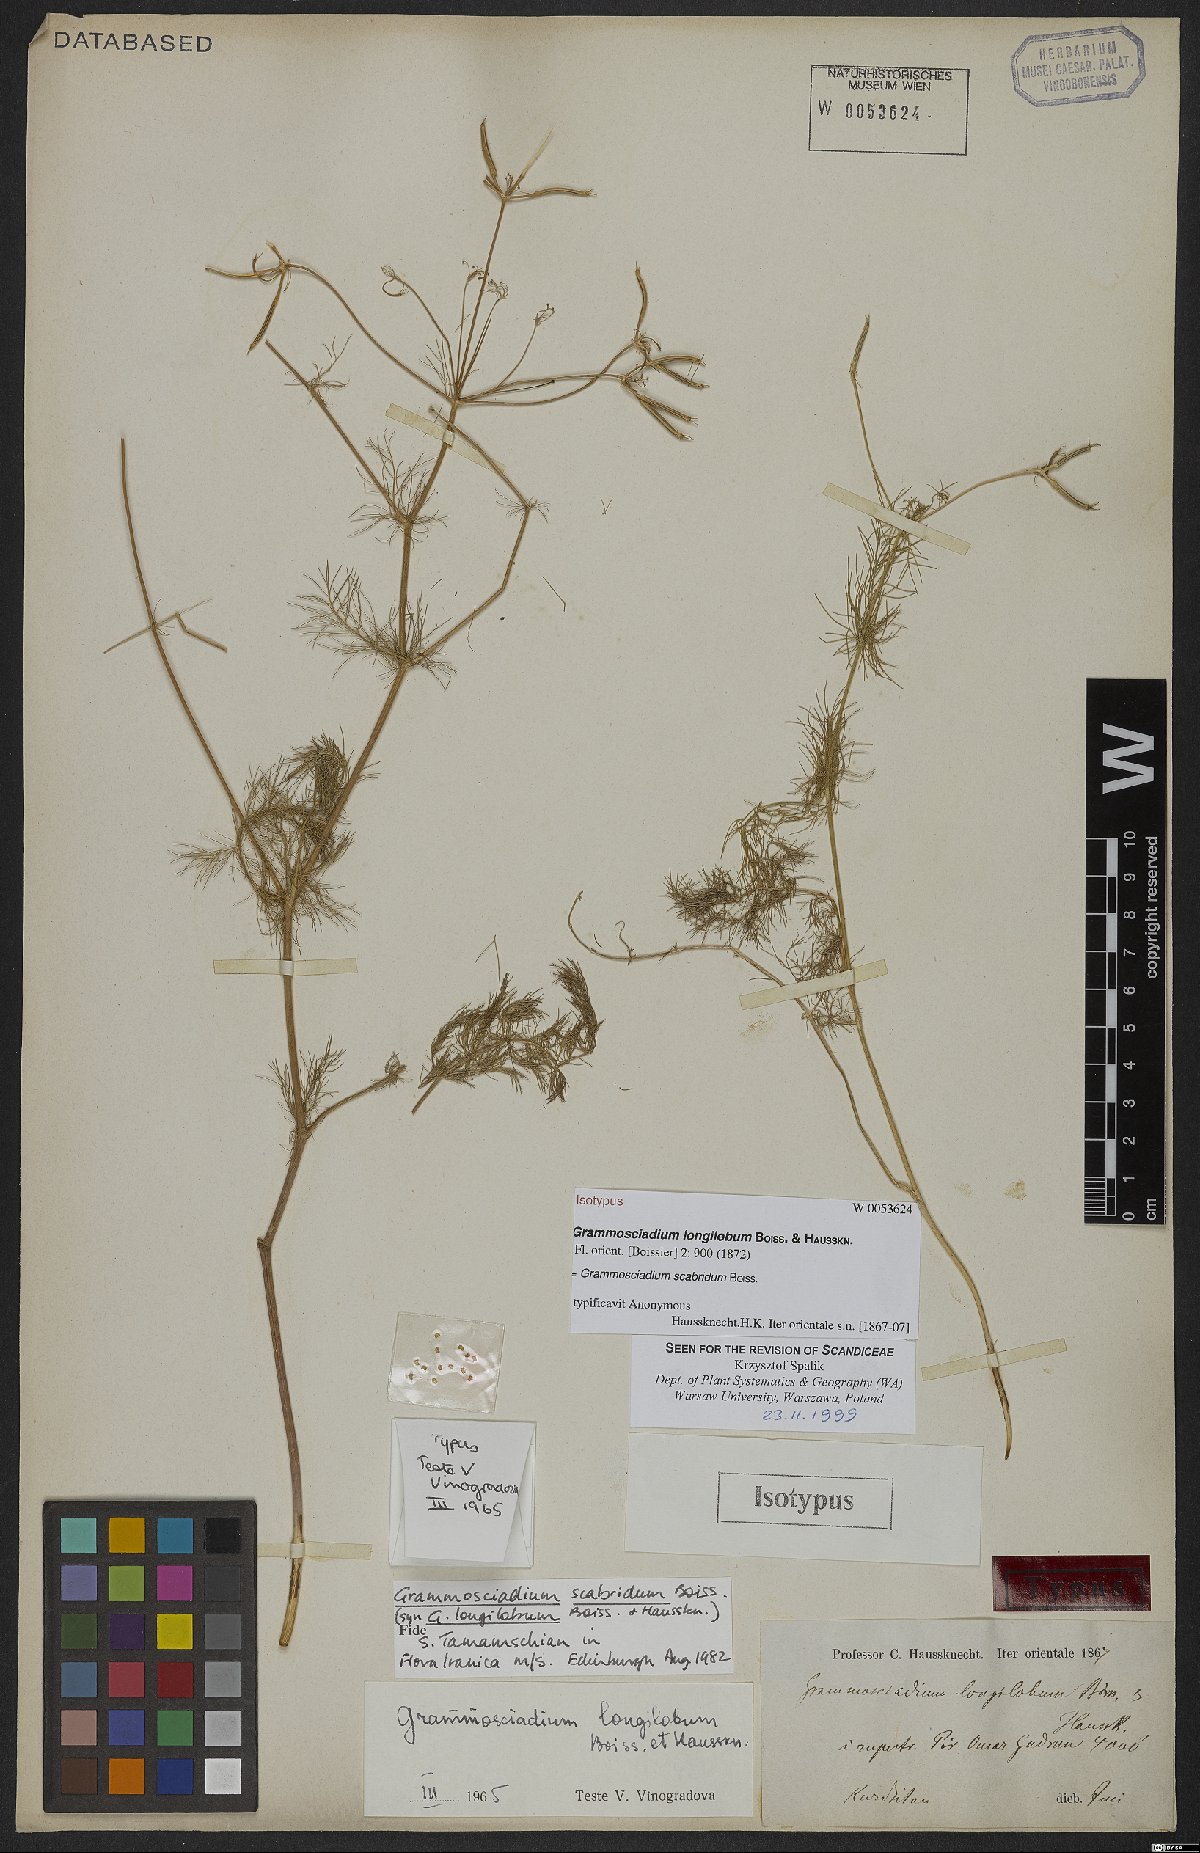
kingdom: Plantae
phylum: Tracheophyta
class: Magnoliopsida
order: Apiales
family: Apiaceae
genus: Grammosciadium
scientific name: Grammosciadium scabridum
